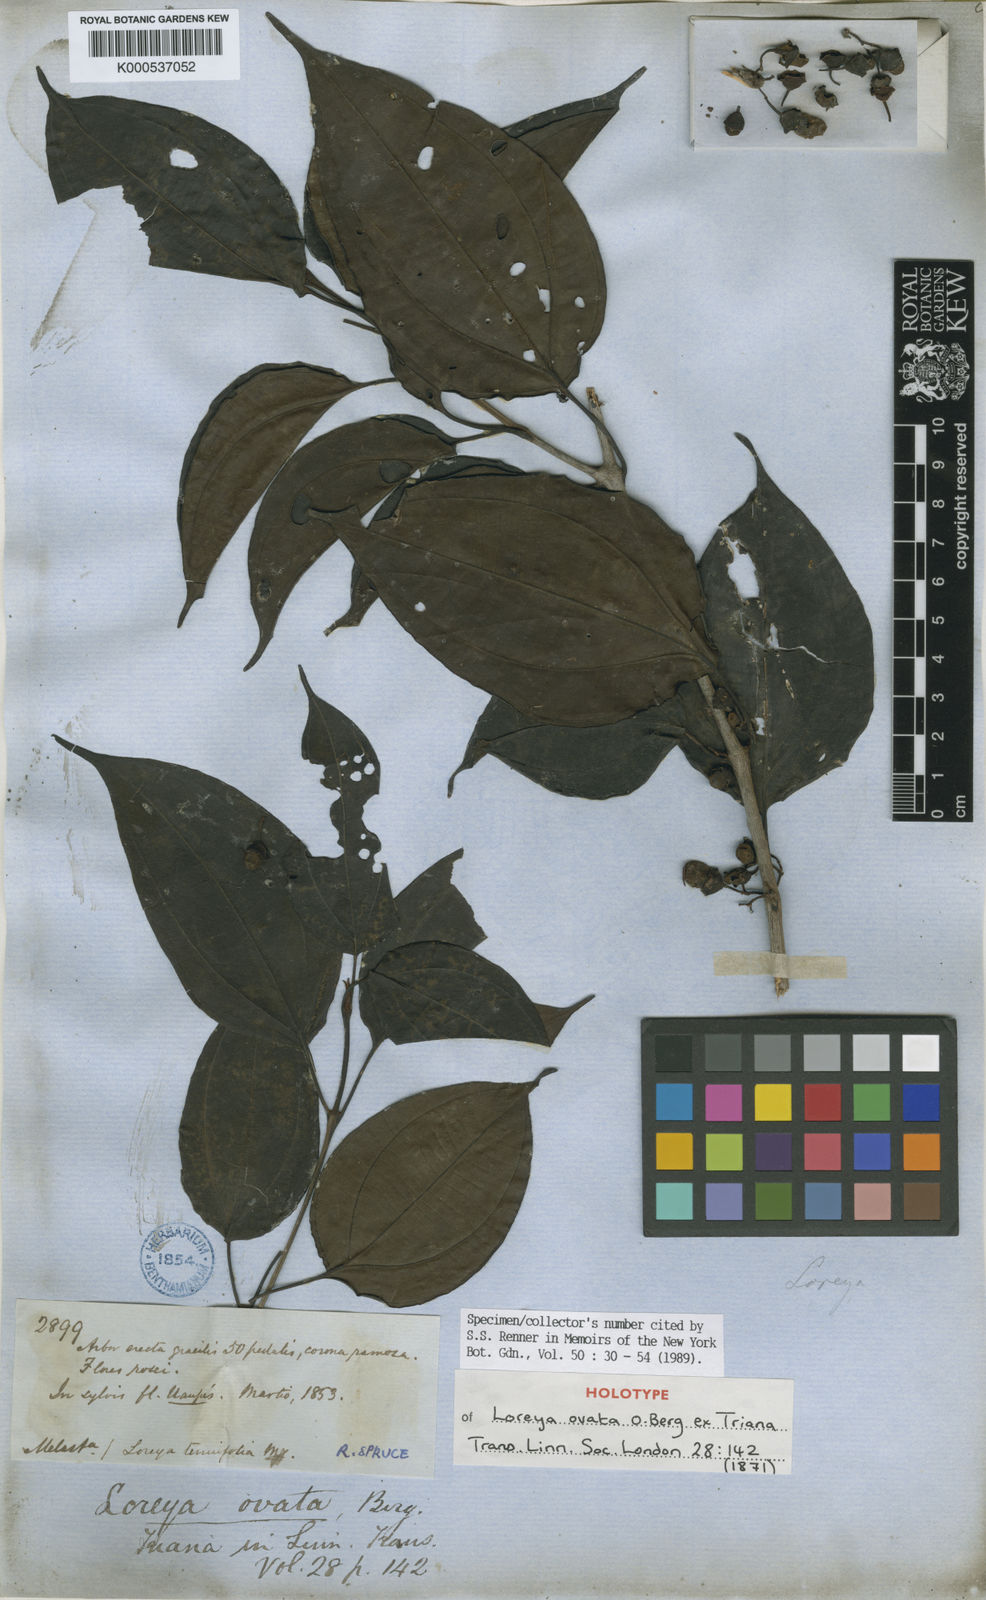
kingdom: Plantae
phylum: Tracheophyta
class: Magnoliopsida
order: Myrtales
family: Melastomataceae
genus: Bellucia
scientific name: Bellucia ovata
